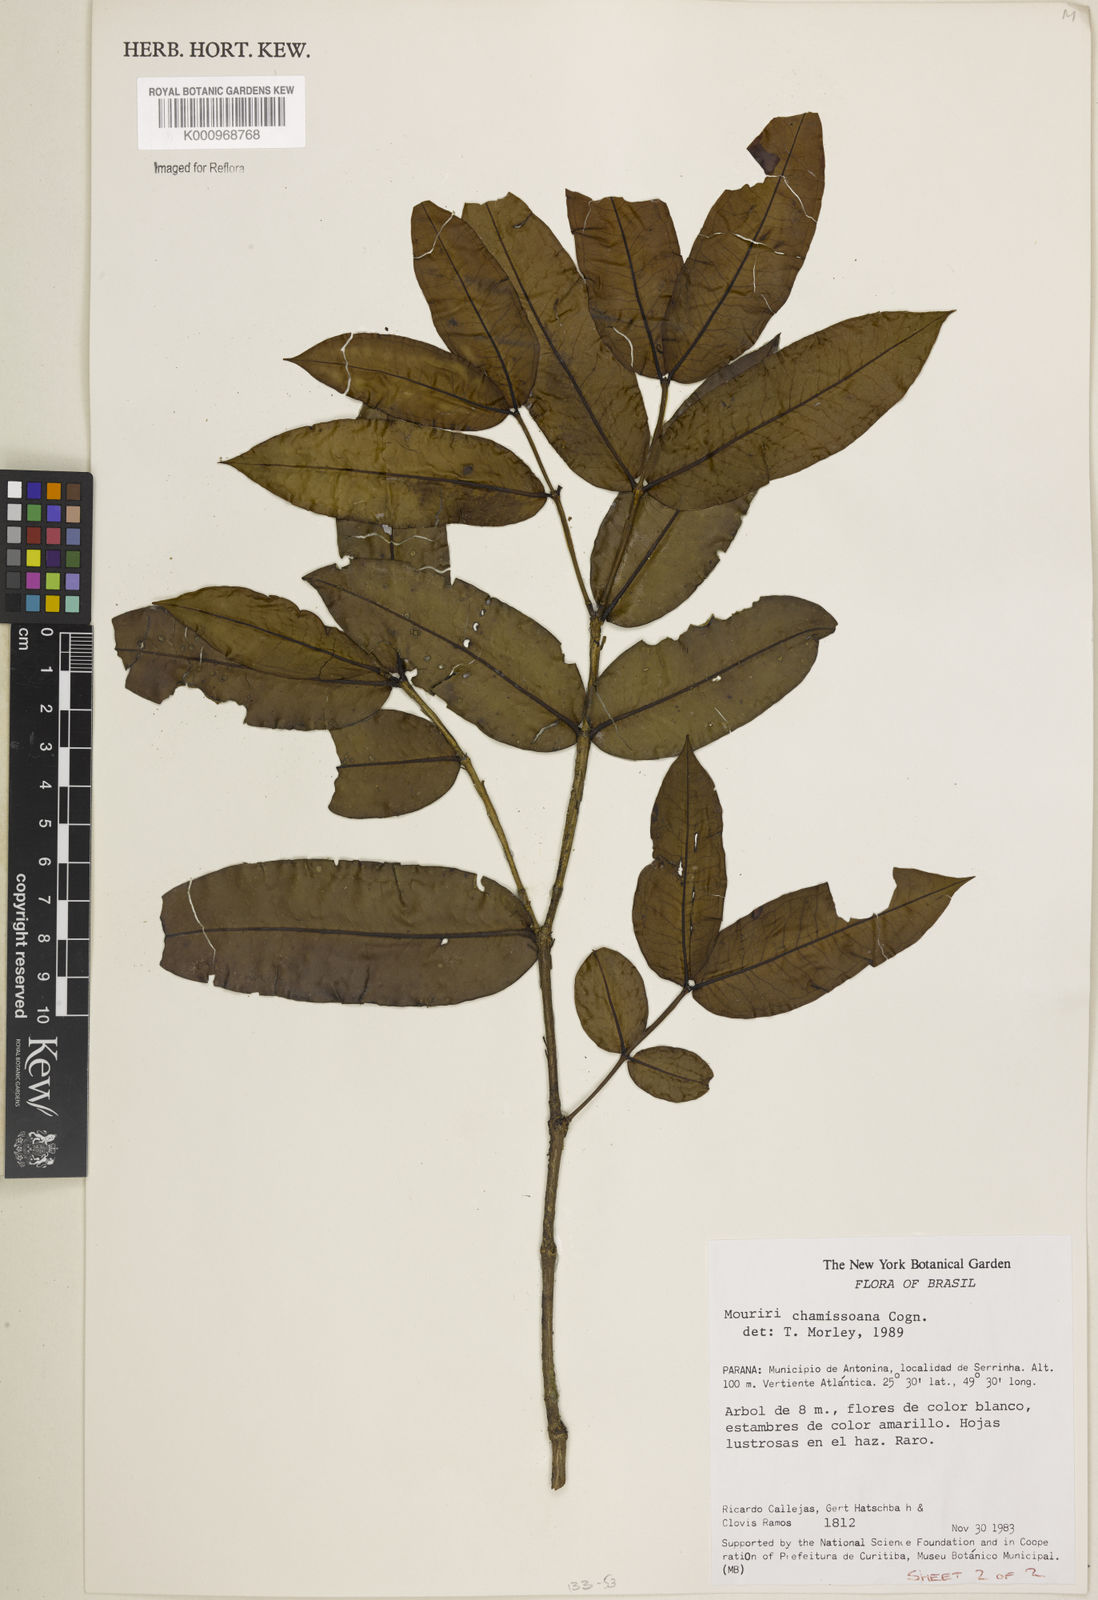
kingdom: Plantae
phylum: Tracheophyta
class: Magnoliopsida
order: Myrtales
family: Melastomataceae
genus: Mouriri
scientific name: Mouriri chamissoana
